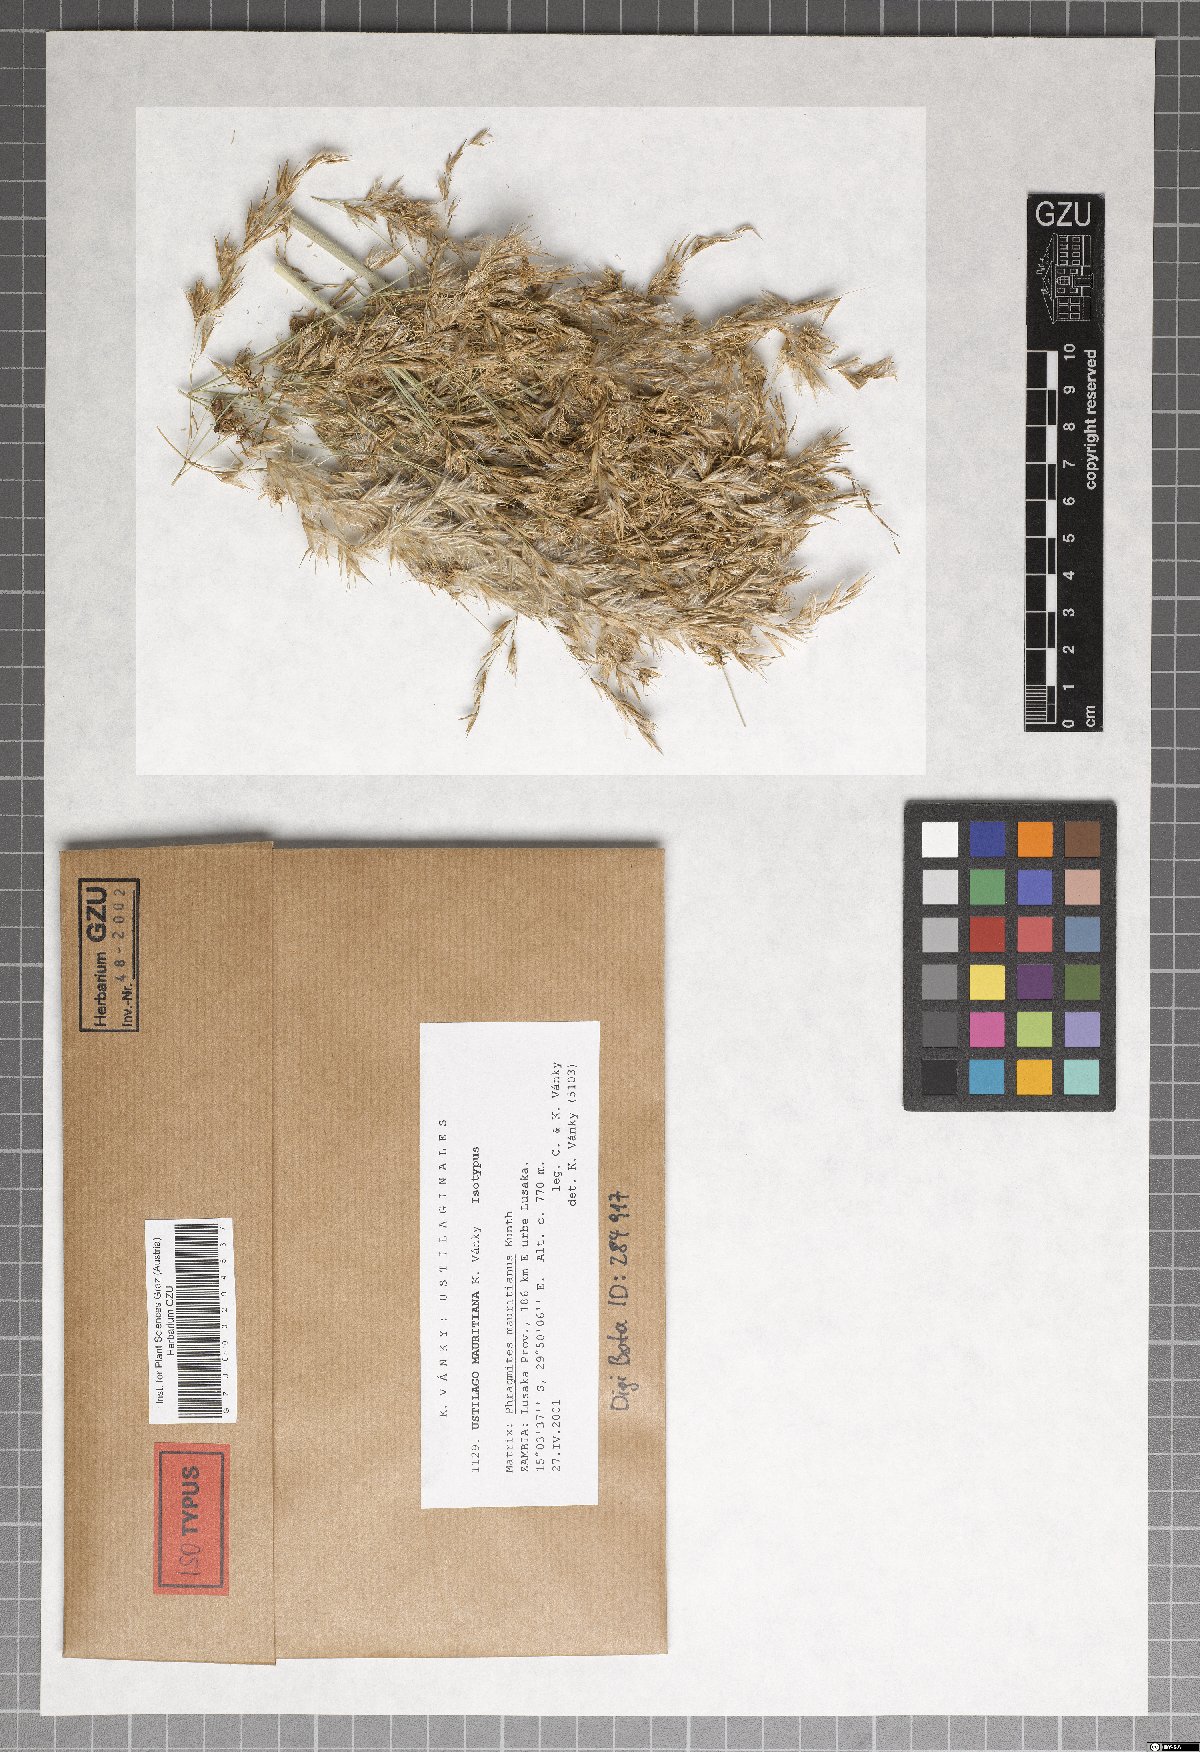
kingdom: Fungi
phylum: Basidiomycota
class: Ustilaginomycetes
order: Ustilaginales
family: Ustilaginaceae
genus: Ustilago
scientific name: Ustilago mauritiana
